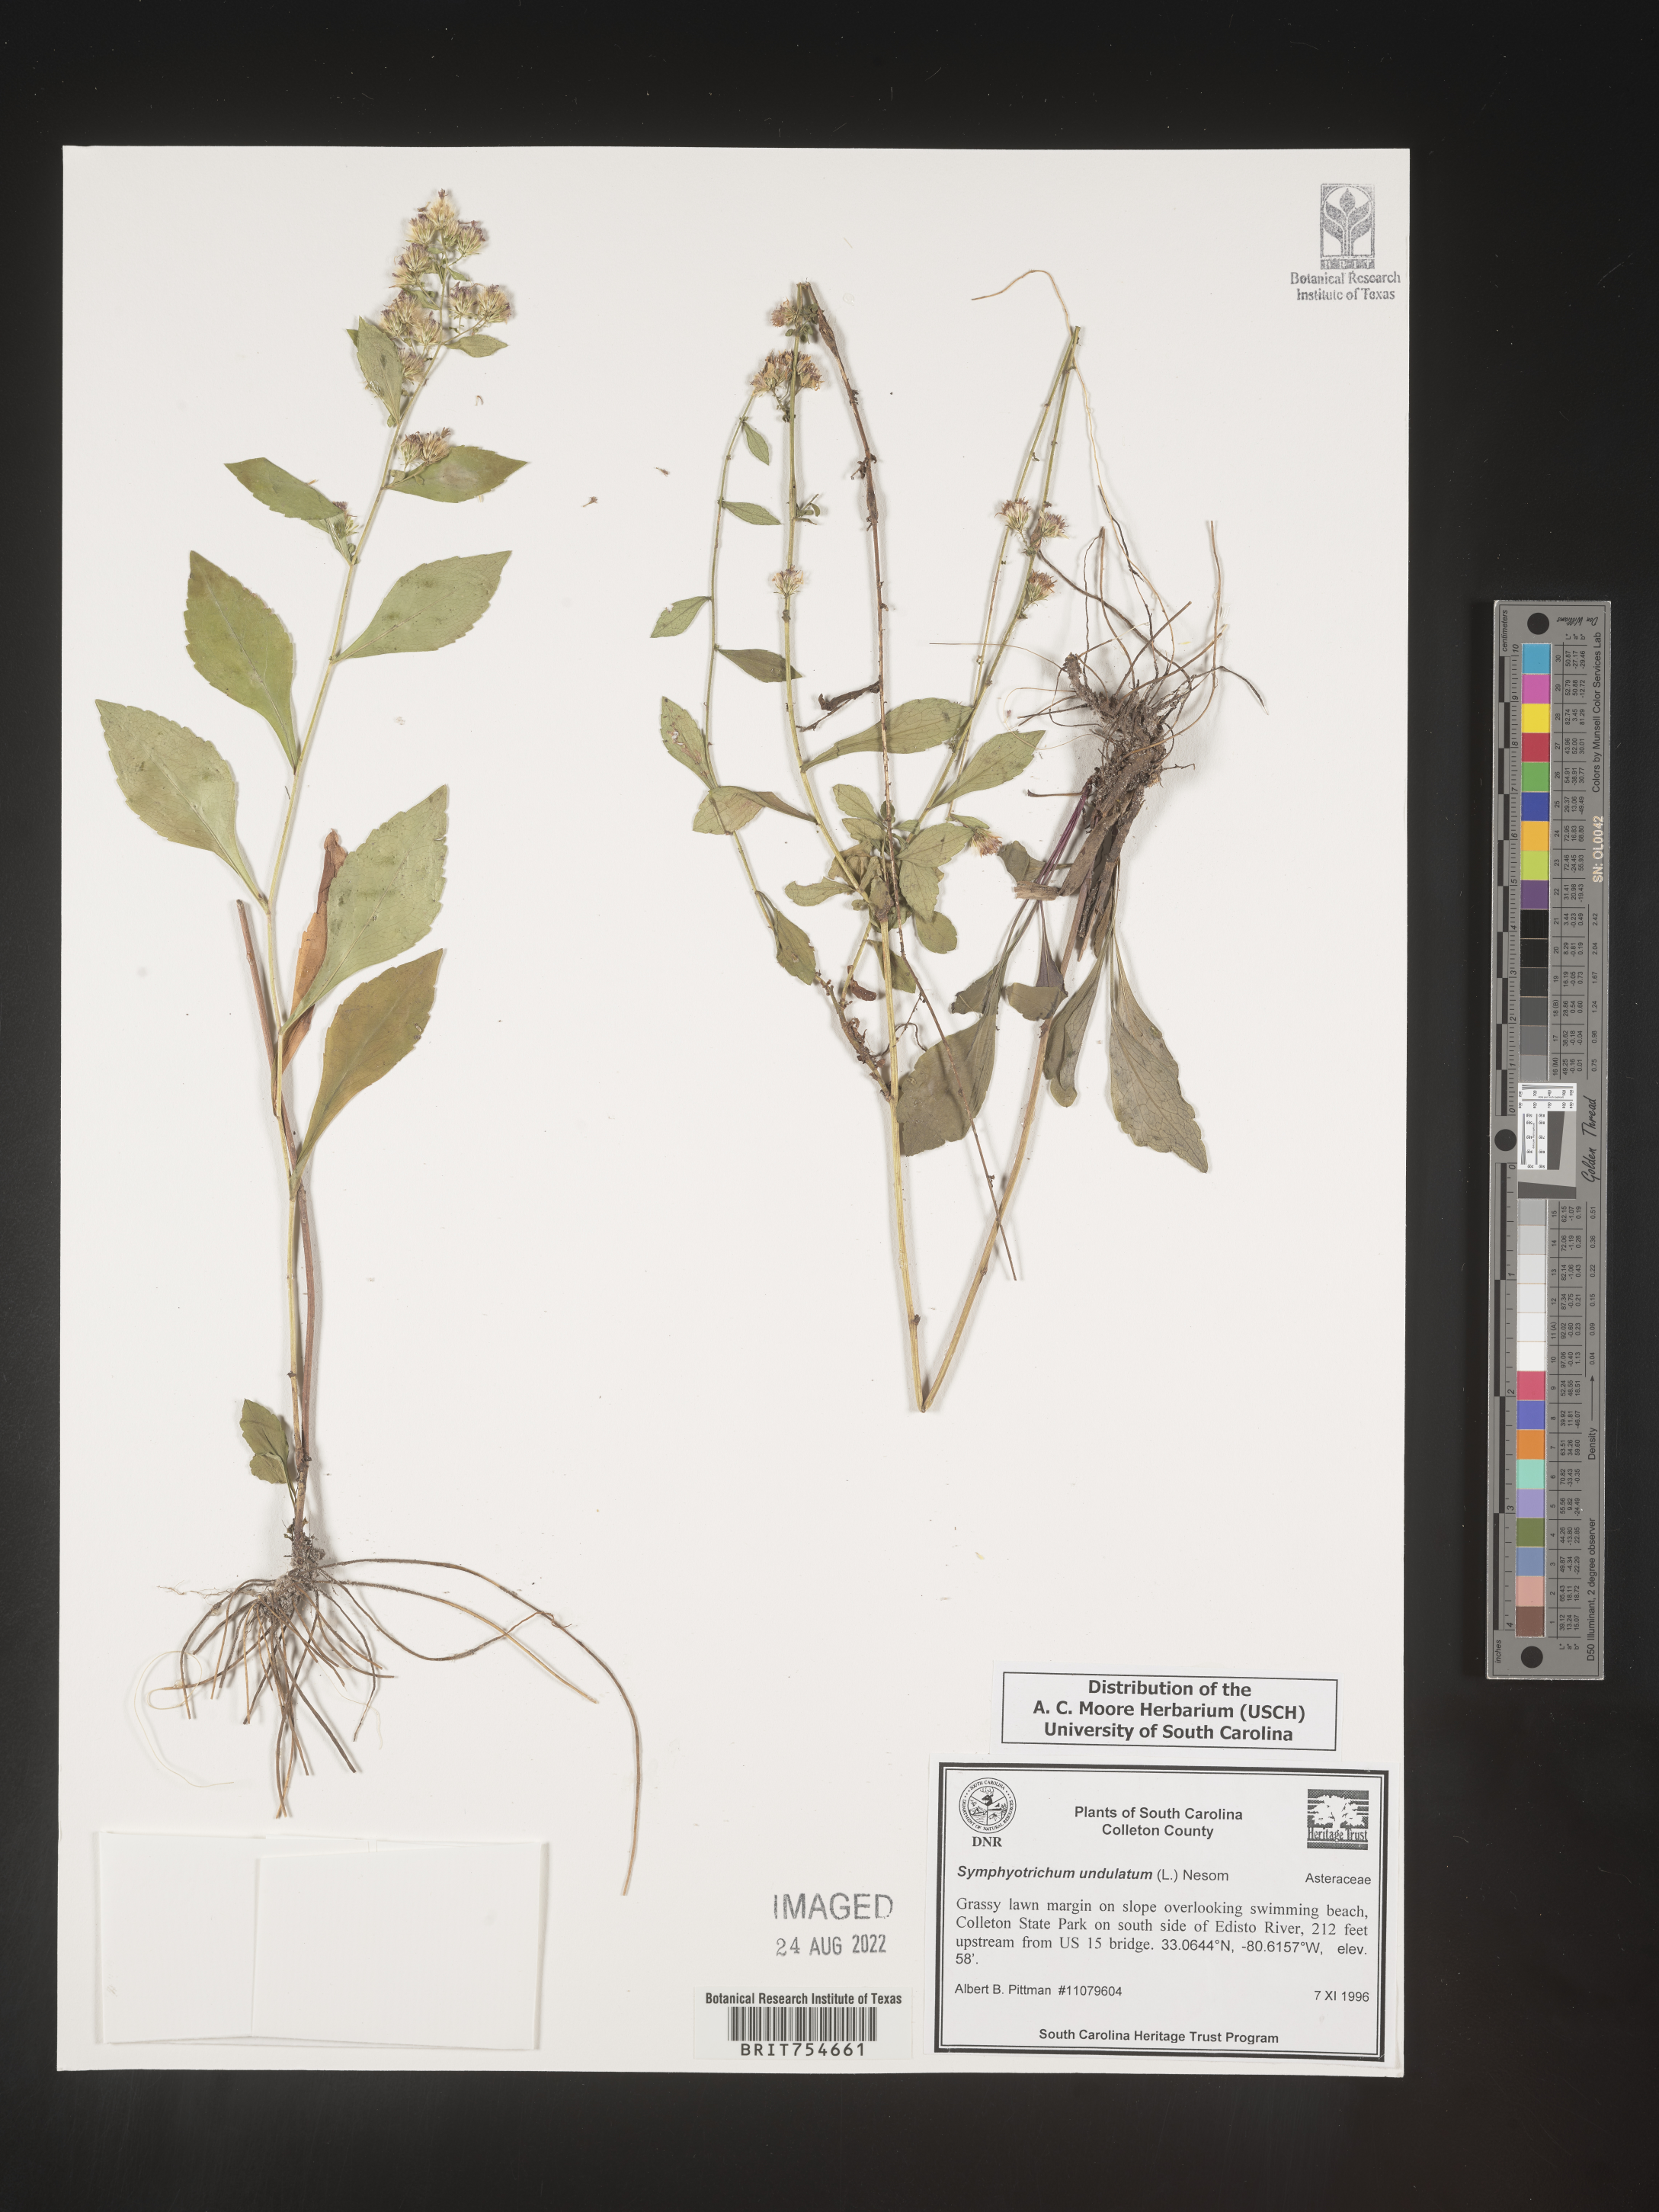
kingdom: Plantae
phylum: Tracheophyta
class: Magnoliopsida
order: Asterales
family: Asteraceae
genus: Symphyotrichum
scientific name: Symphyotrichum undulatum
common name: Clasping heart-leaf aster
